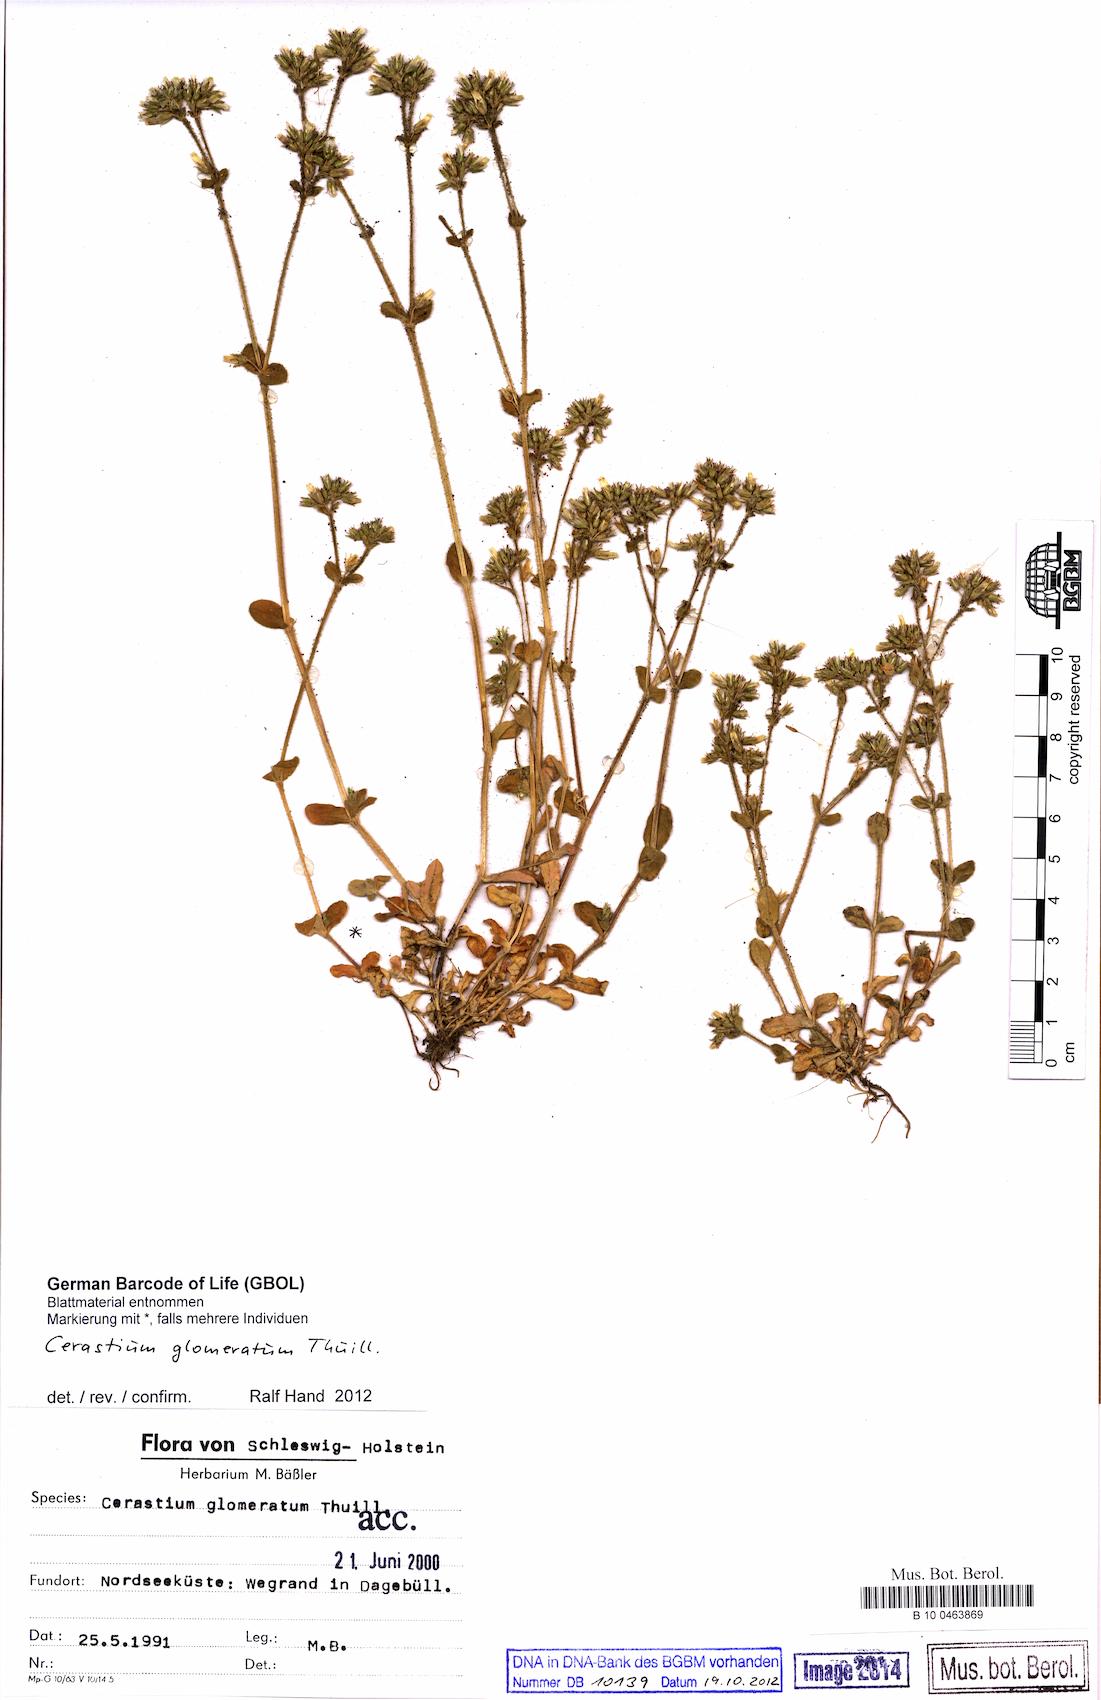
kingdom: Plantae
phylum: Tracheophyta
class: Magnoliopsida
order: Caryophyllales
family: Caryophyllaceae
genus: Cerastium
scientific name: Cerastium glomeratum
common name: Sticky chickweed
